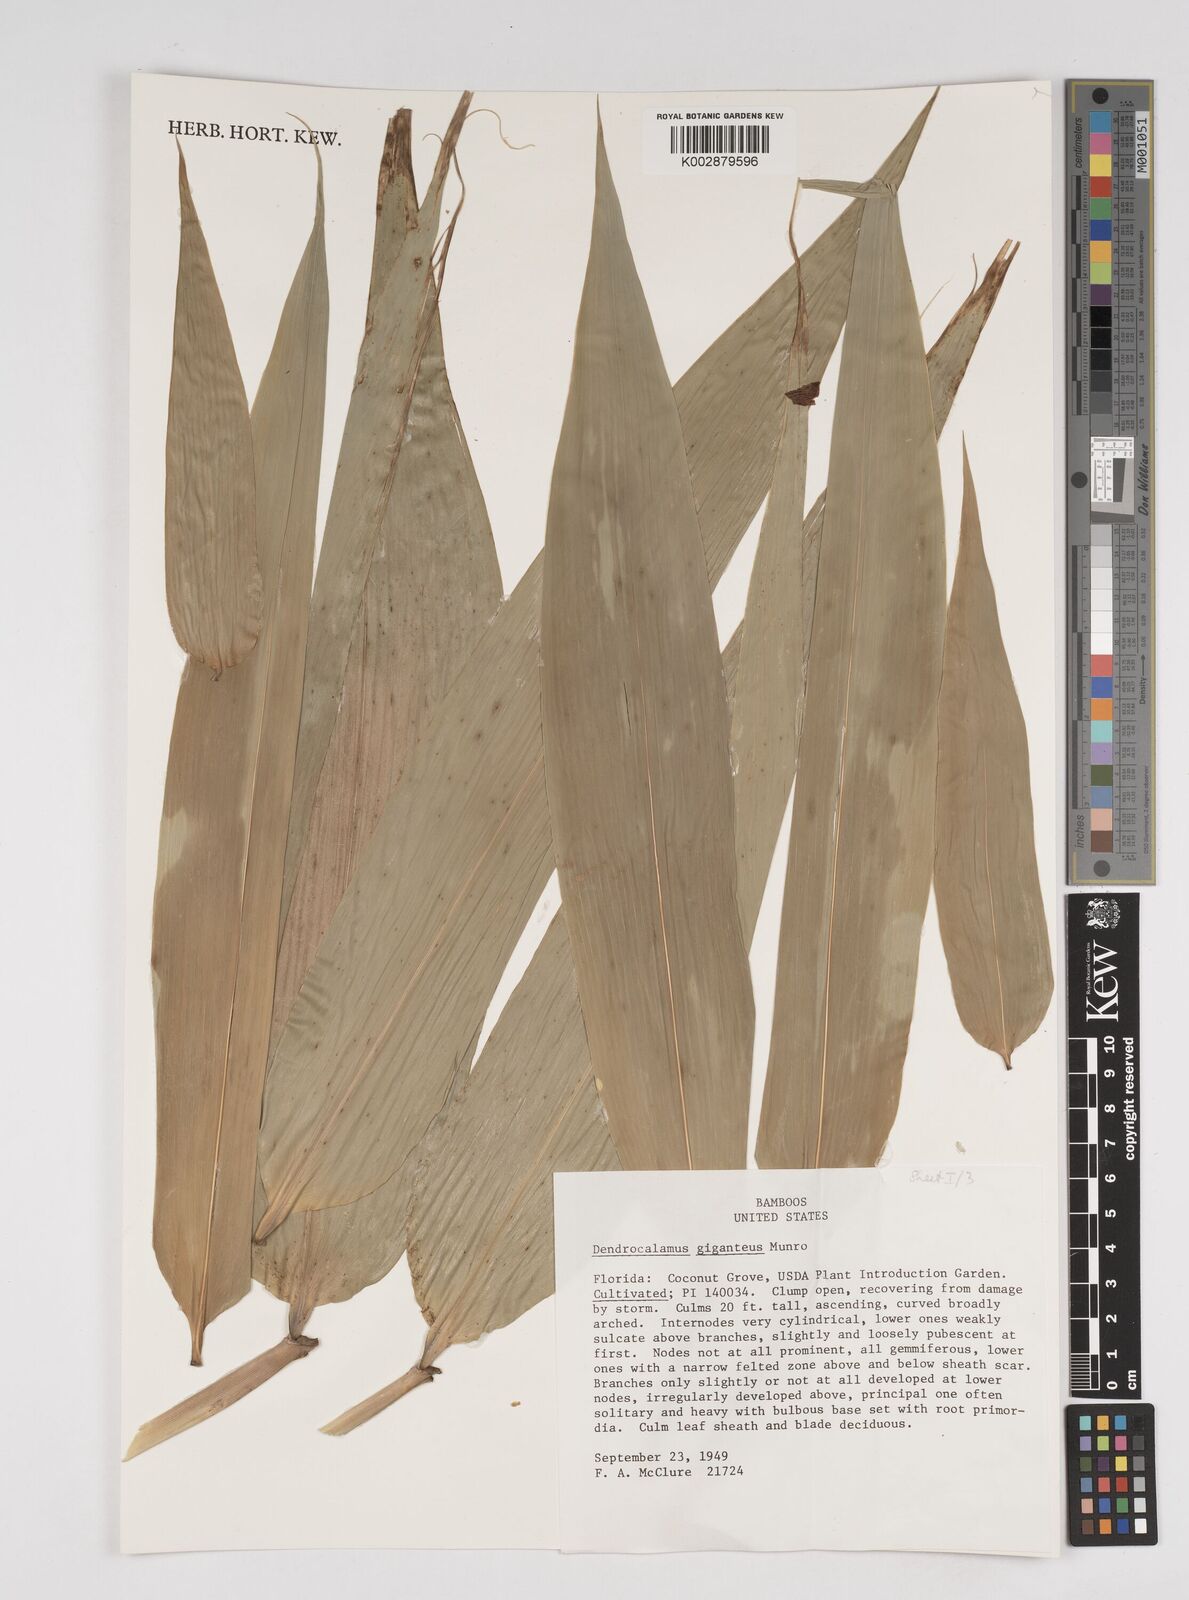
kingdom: Plantae
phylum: Tracheophyta
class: Liliopsida
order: Poales
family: Poaceae
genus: Dendrocalamus
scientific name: Dendrocalamus giganteus
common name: Giant bamboo
